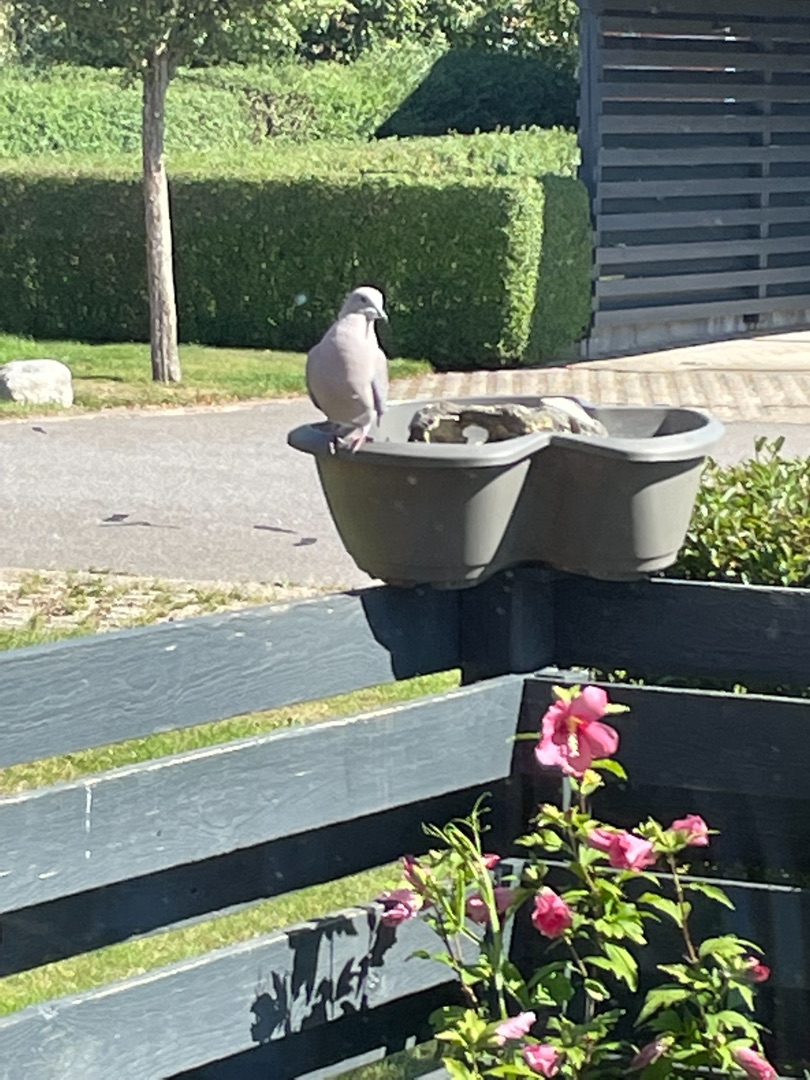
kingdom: Animalia
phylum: Chordata
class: Aves
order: Columbiformes
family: Columbidae
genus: Streptopelia
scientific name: Streptopelia decaocto
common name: Tyrkerdue
